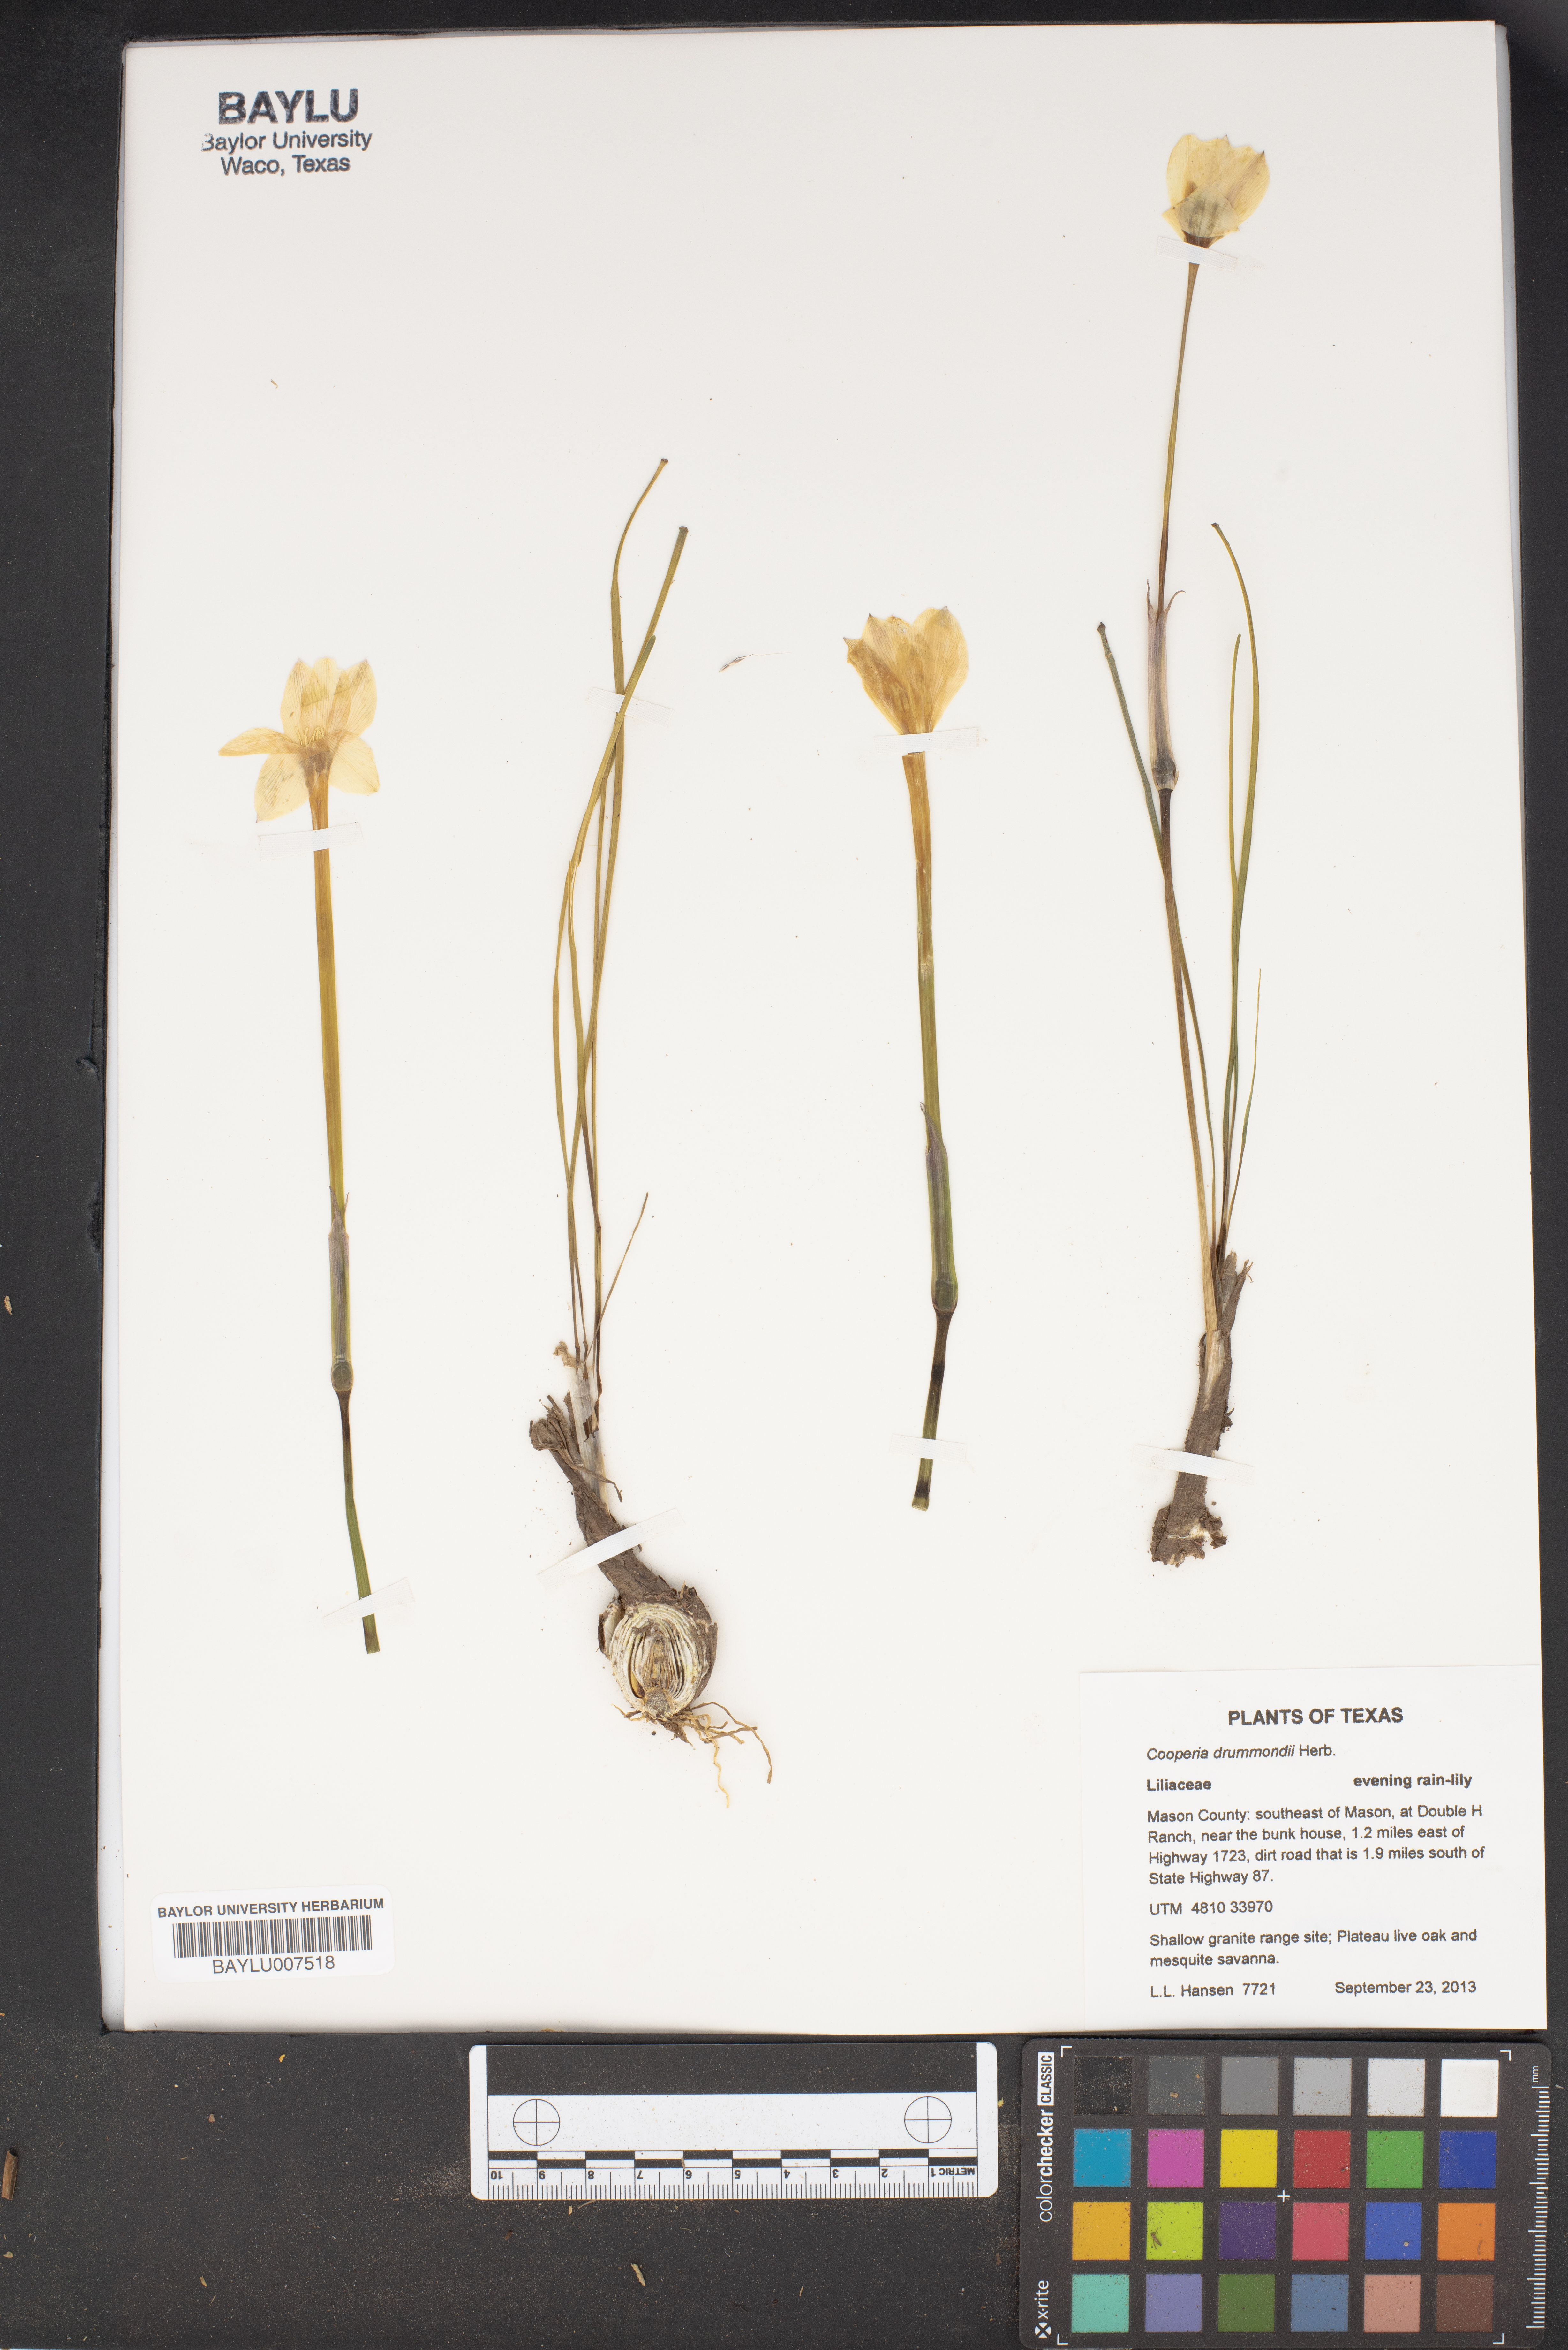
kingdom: Plantae
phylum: Tracheophyta
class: Liliopsida
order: Asparagales
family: Amaryllidaceae
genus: Zephyranthes
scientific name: Zephyranthes chlorosolen
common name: Evening rain-lily
